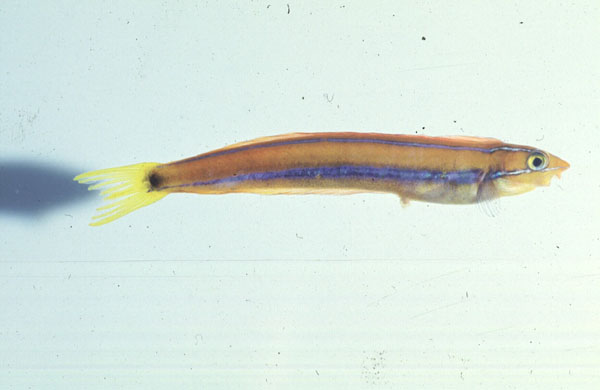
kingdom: Animalia
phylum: Chordata
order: Perciformes
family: Blenniidae
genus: Plagiotremus
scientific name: Plagiotremus rhinorhynchos
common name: Bluestriped fangblenny
